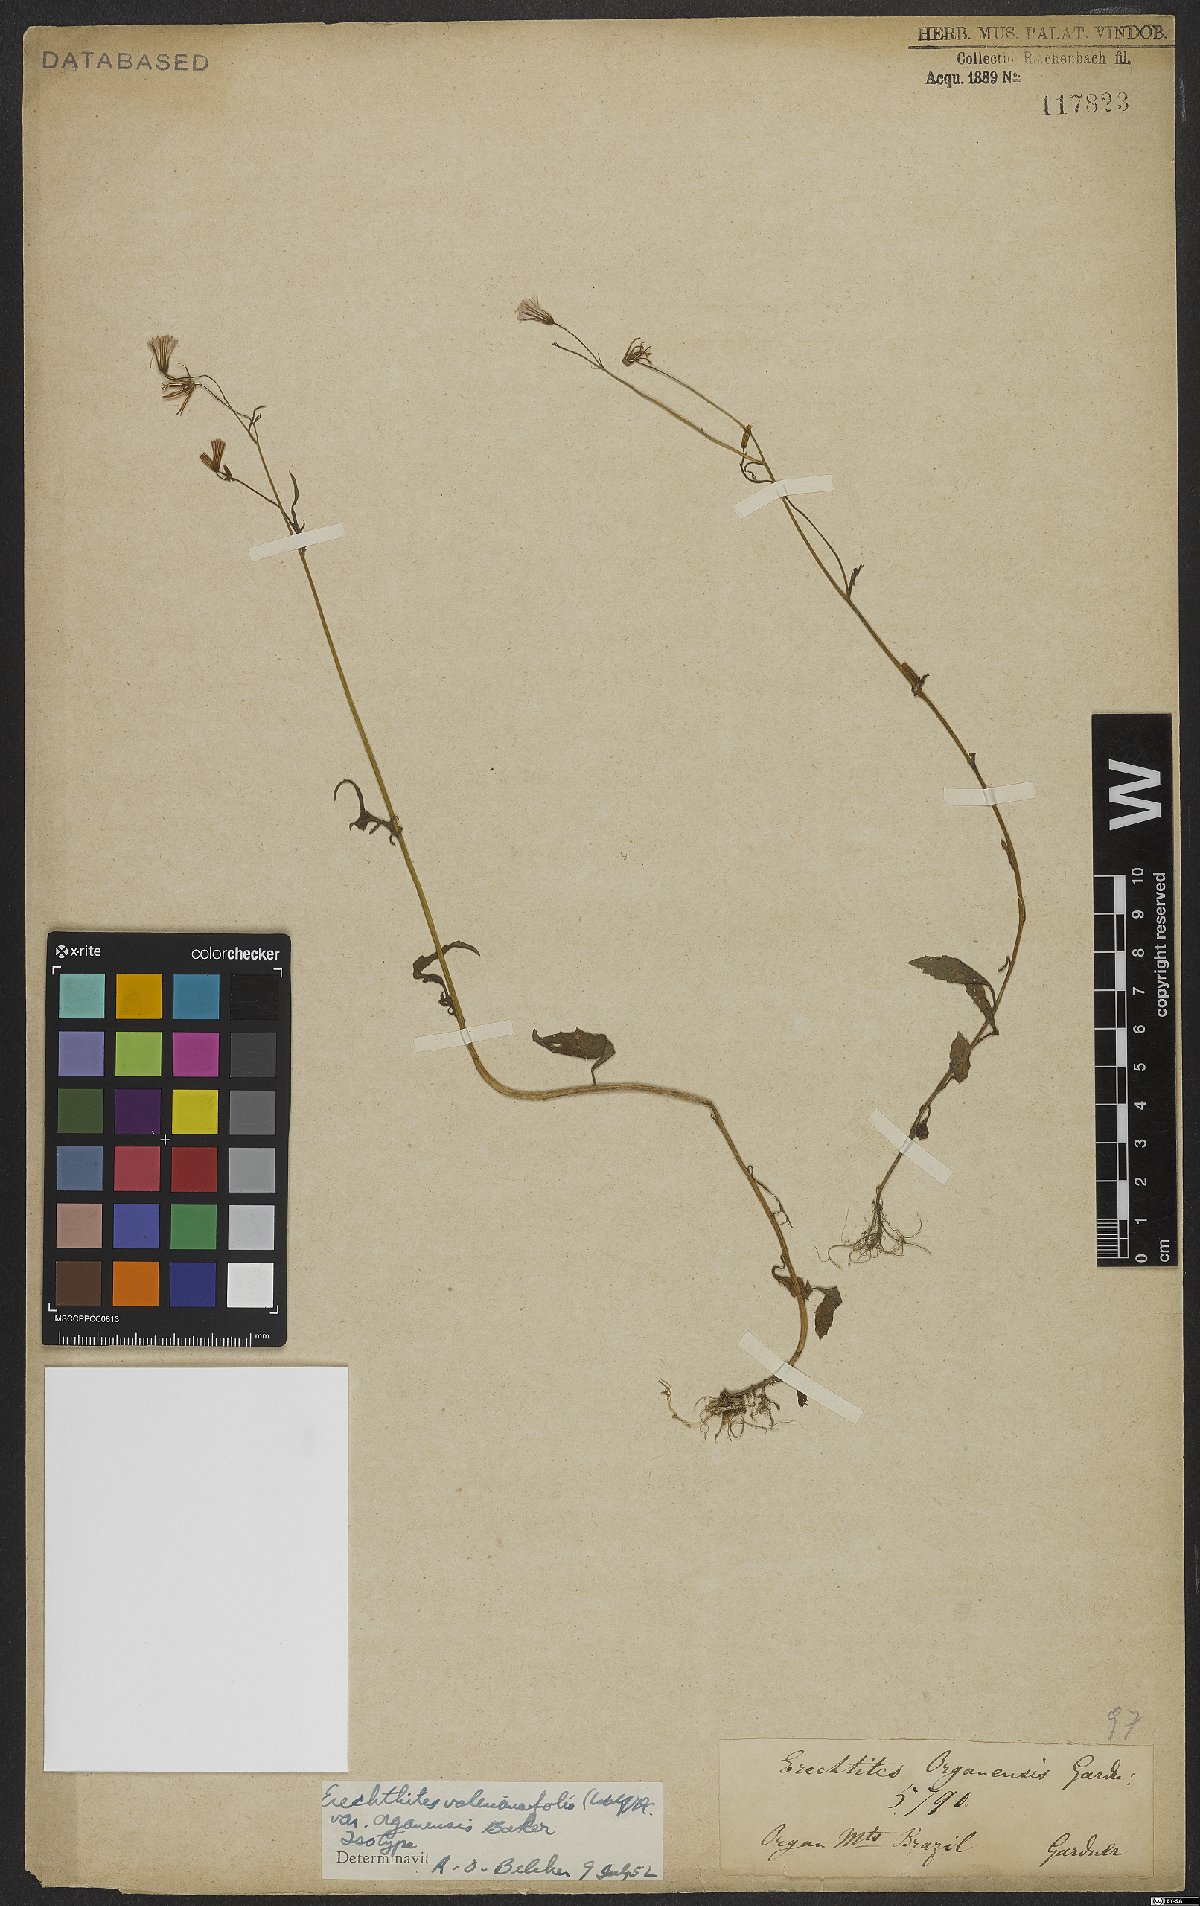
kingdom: Plantae
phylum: Tracheophyta
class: Magnoliopsida
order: Asterales
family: Asteraceae
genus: Erechtites
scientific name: Erechtites valerianifolius
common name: Tropical burnweed
